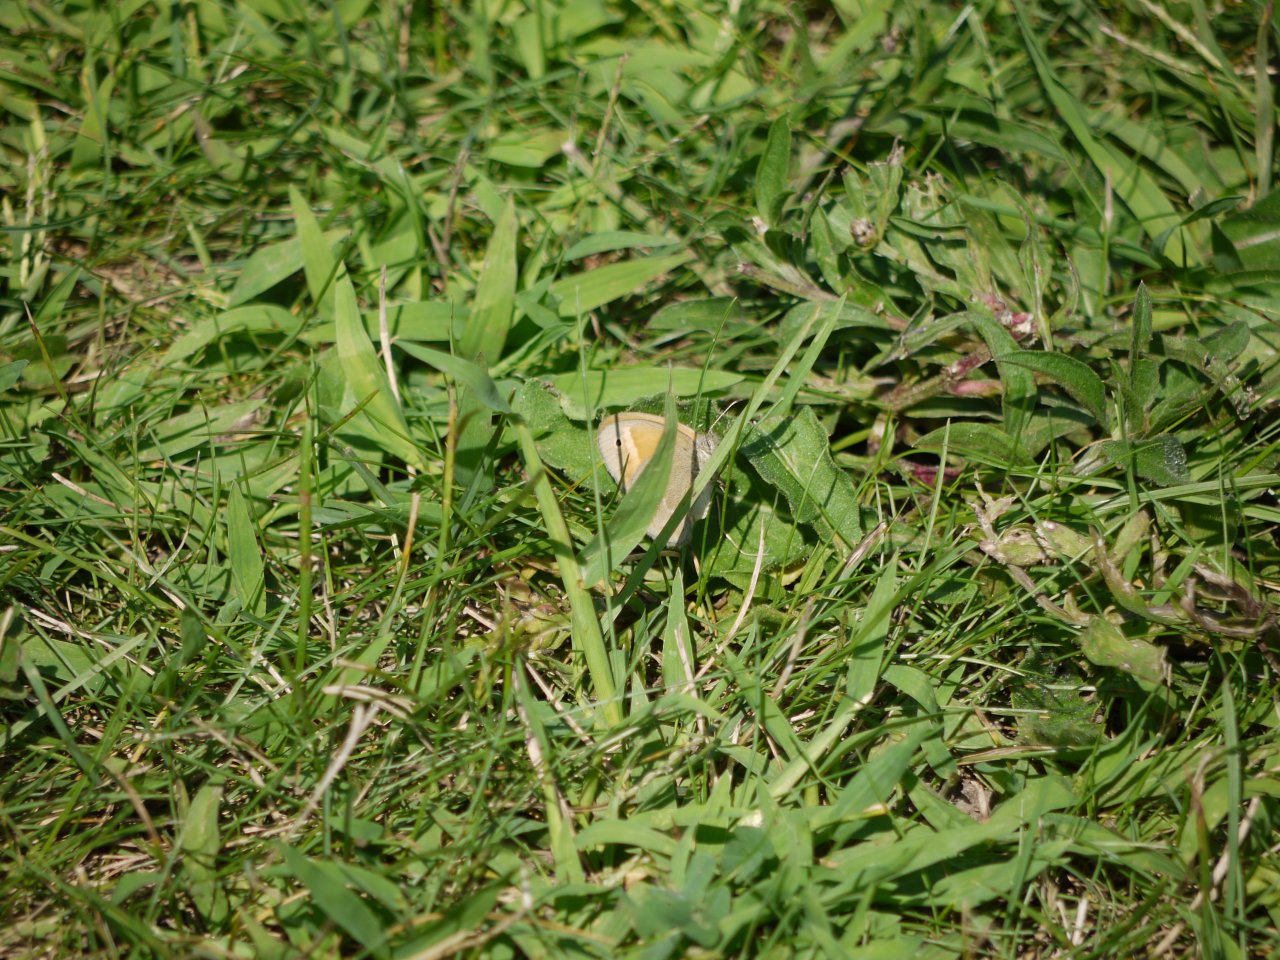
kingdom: Animalia
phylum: Arthropoda
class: Insecta
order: Lepidoptera
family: Nymphalidae
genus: Coenonympha
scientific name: Coenonympha tullia
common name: Large Heath
